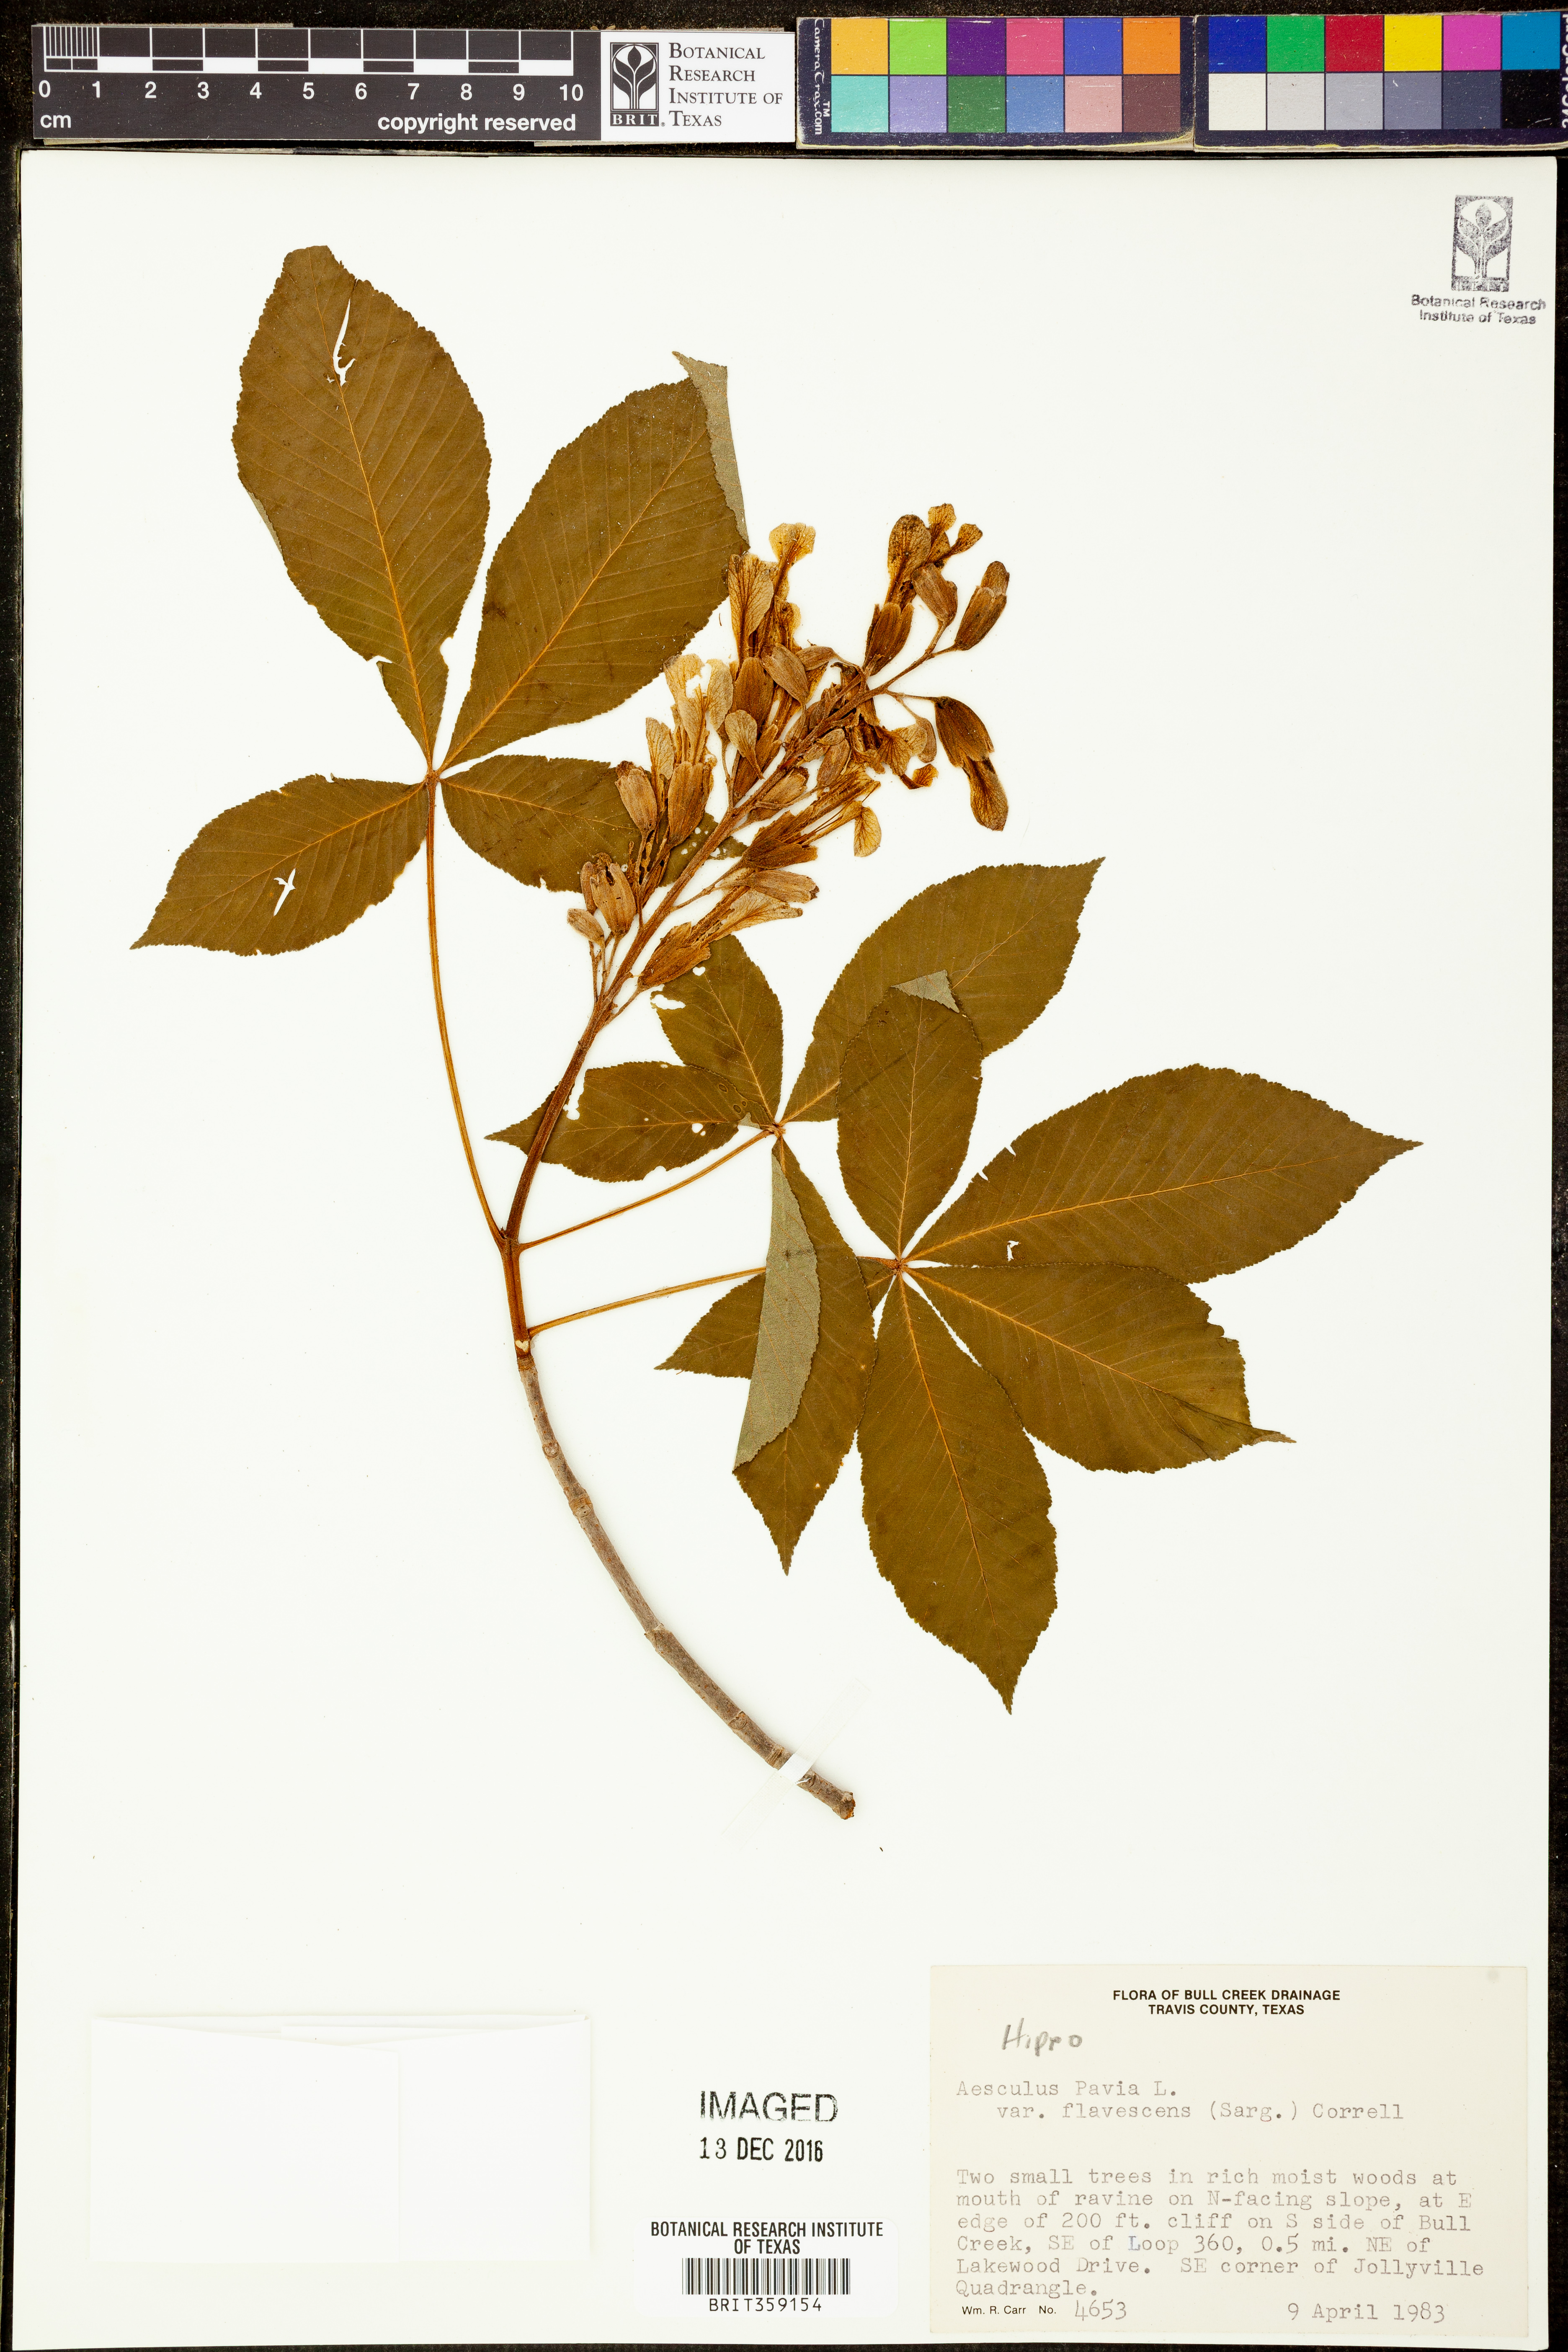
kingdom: Plantae
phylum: Tracheophyta
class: Magnoliopsida
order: Sapindales
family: Sapindaceae
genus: Aesculus
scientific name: Aesculus pavia
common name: Red buckeye
